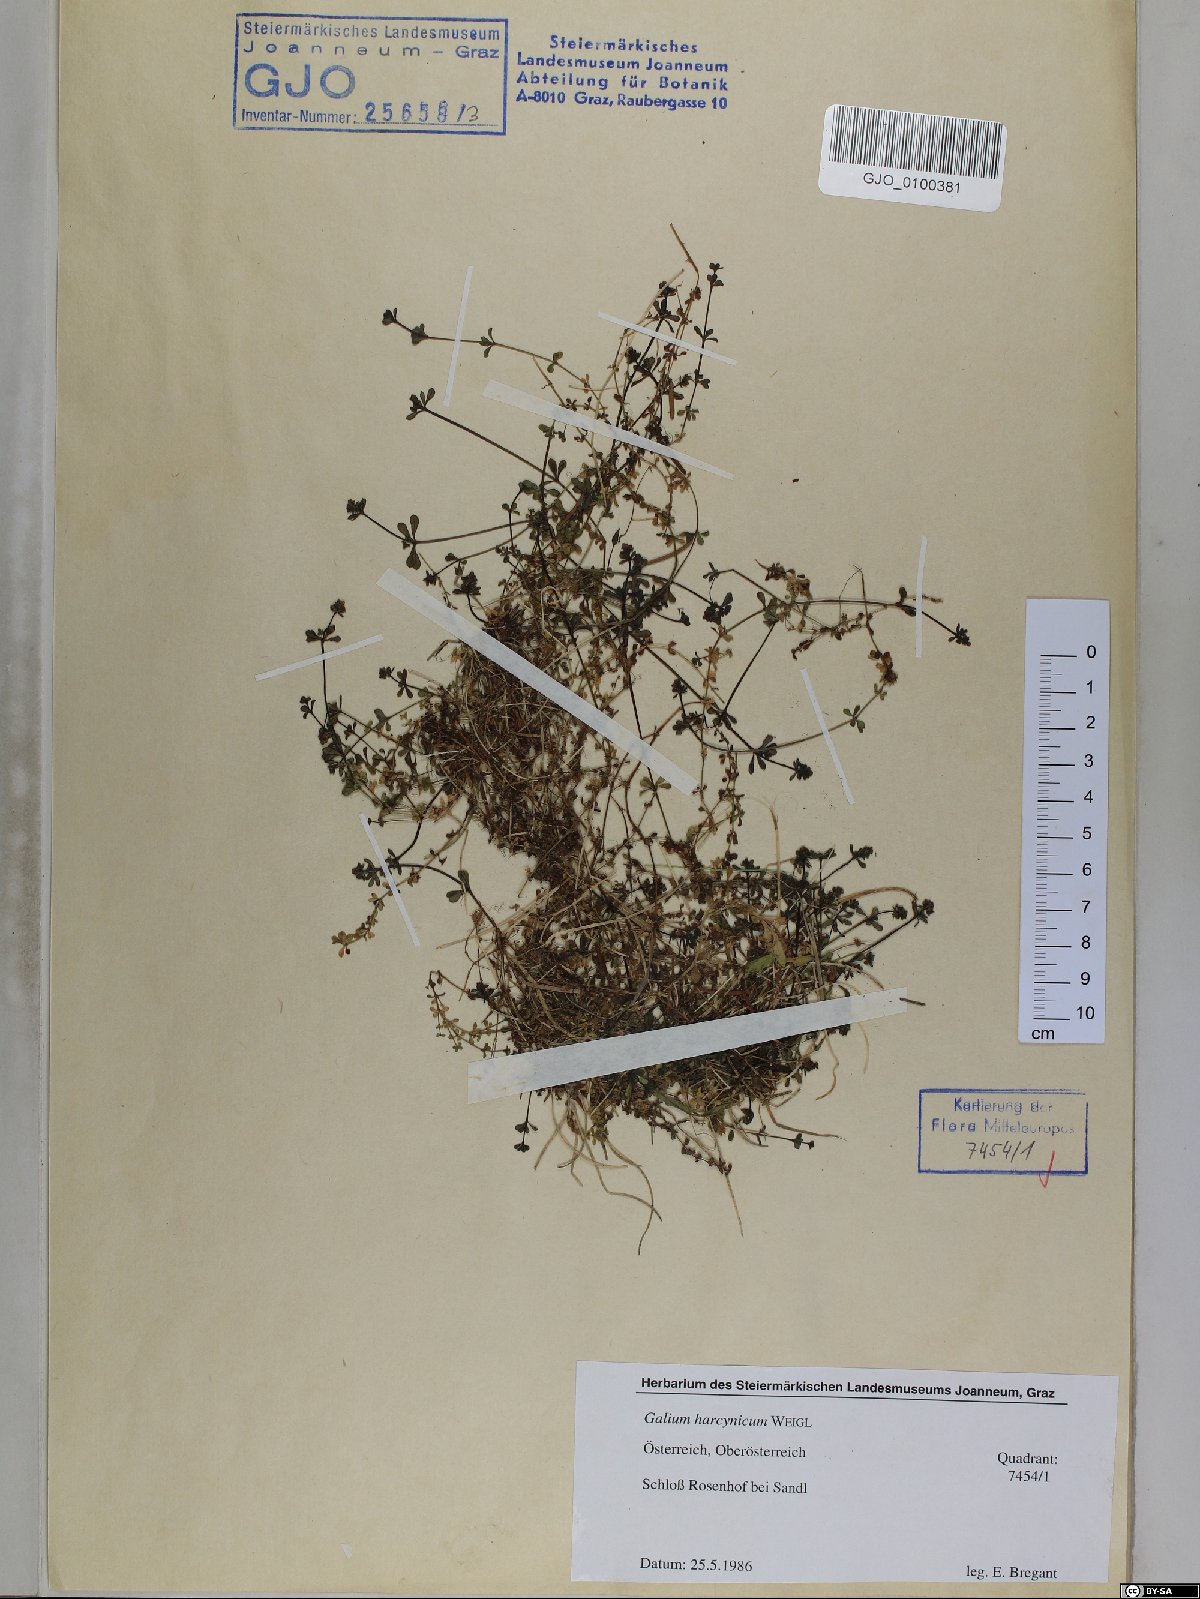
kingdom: Plantae
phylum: Tracheophyta
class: Magnoliopsida
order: Gentianales
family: Rubiaceae
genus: Galium
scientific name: Galium saxatile
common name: Heath bedstraw
